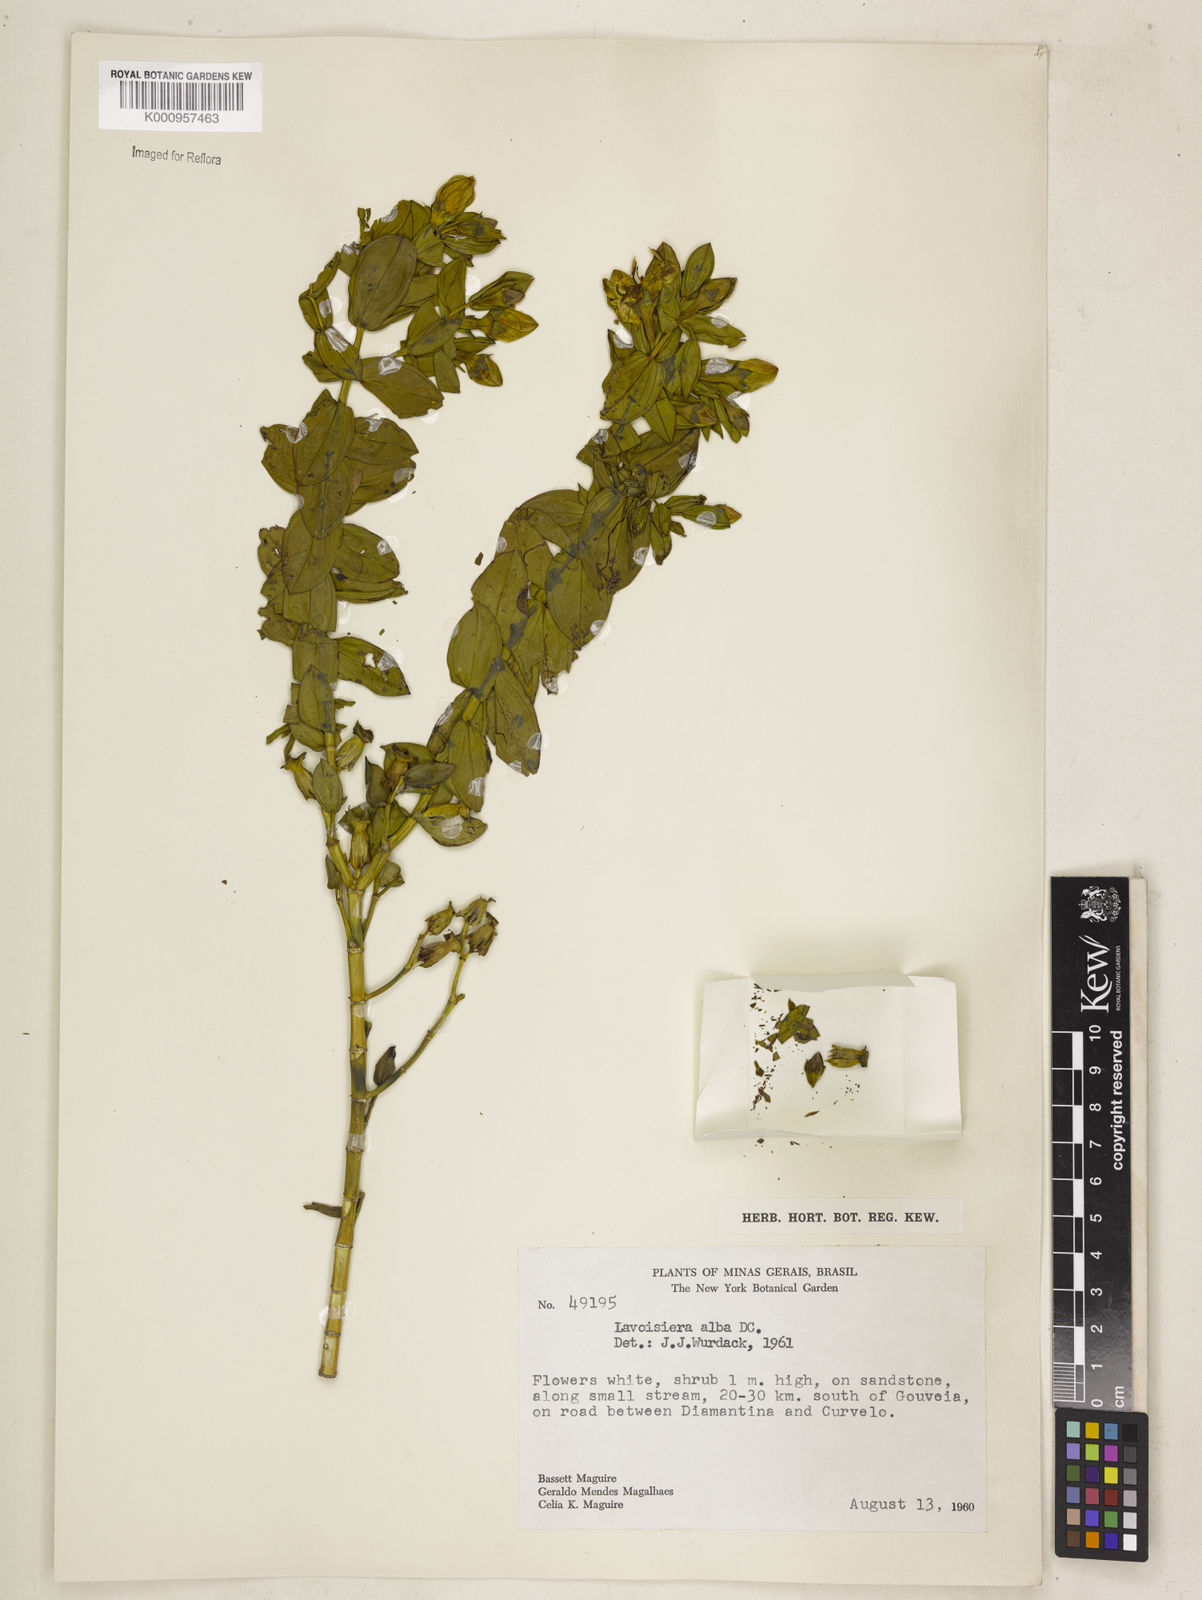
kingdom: Plantae
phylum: Tracheophyta
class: Magnoliopsida
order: Myrtales
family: Melastomataceae
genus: Microlicia
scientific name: Microlicia alba
